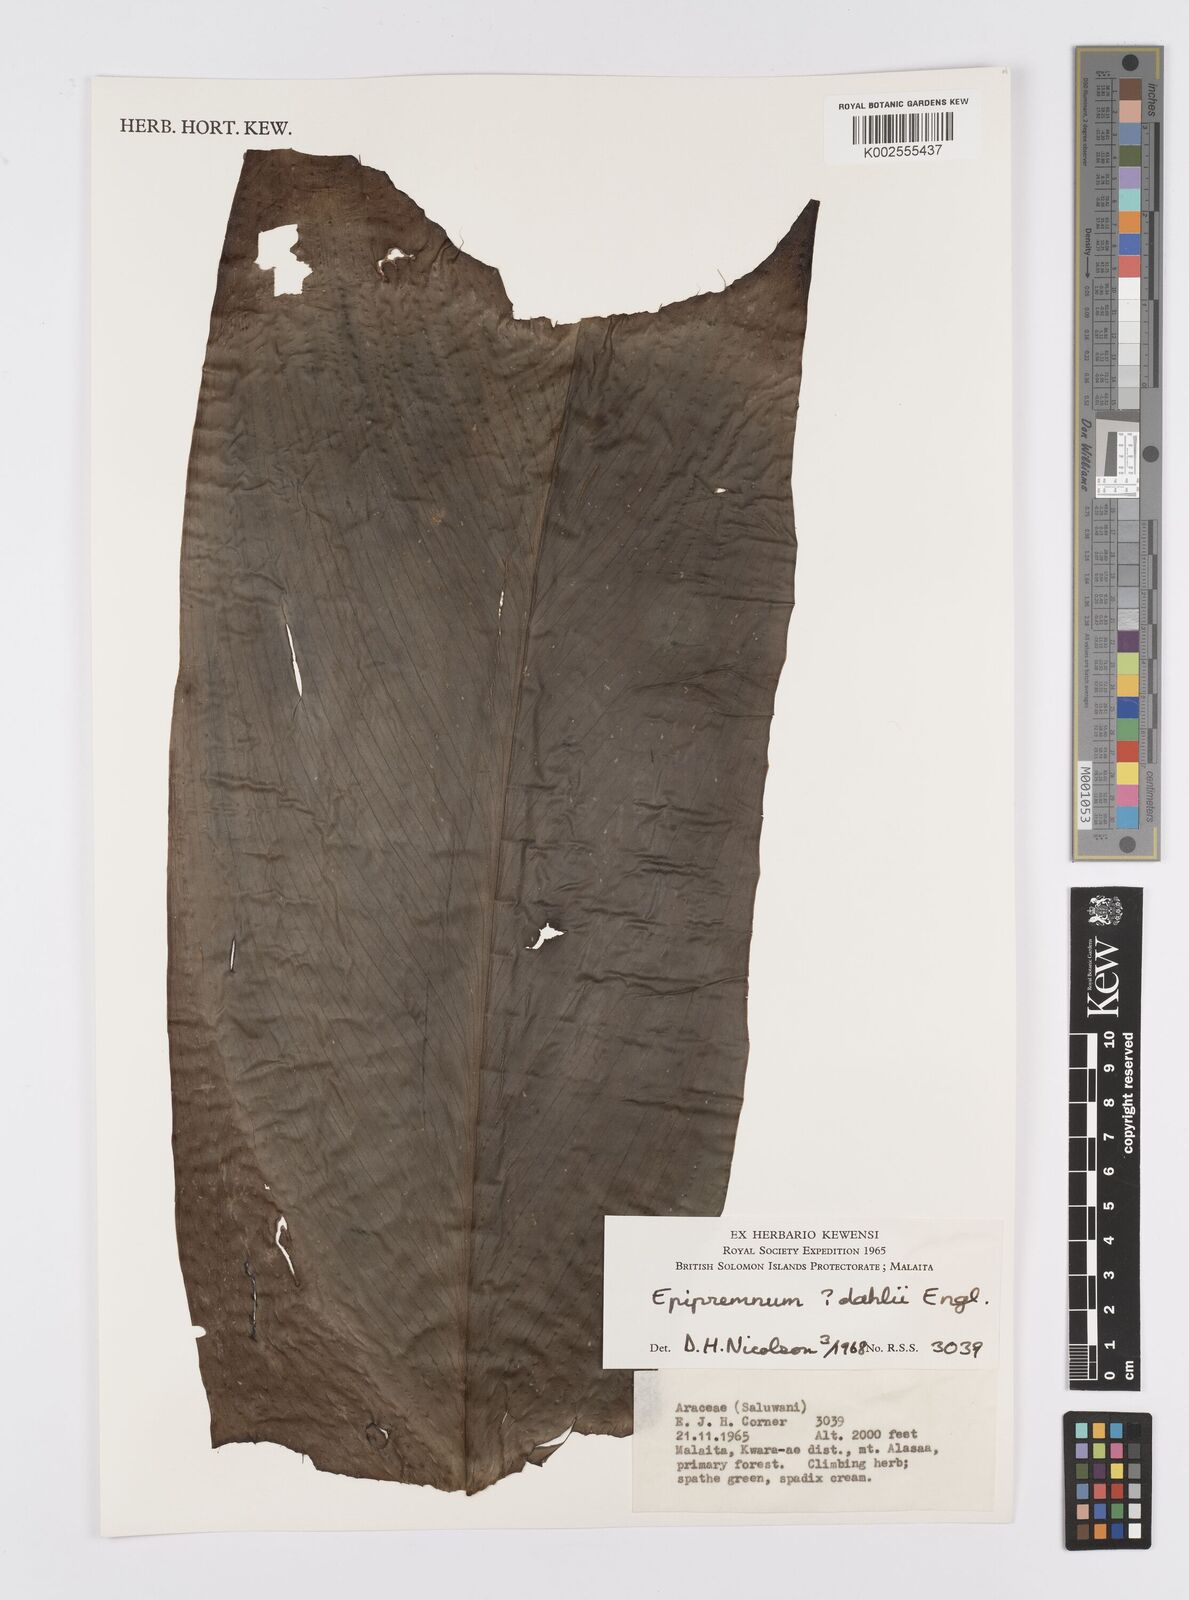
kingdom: Plantae
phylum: Tracheophyta
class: Liliopsida
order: Alismatales
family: Araceae
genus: Epipremnum
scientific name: Epipremnum dahlii
